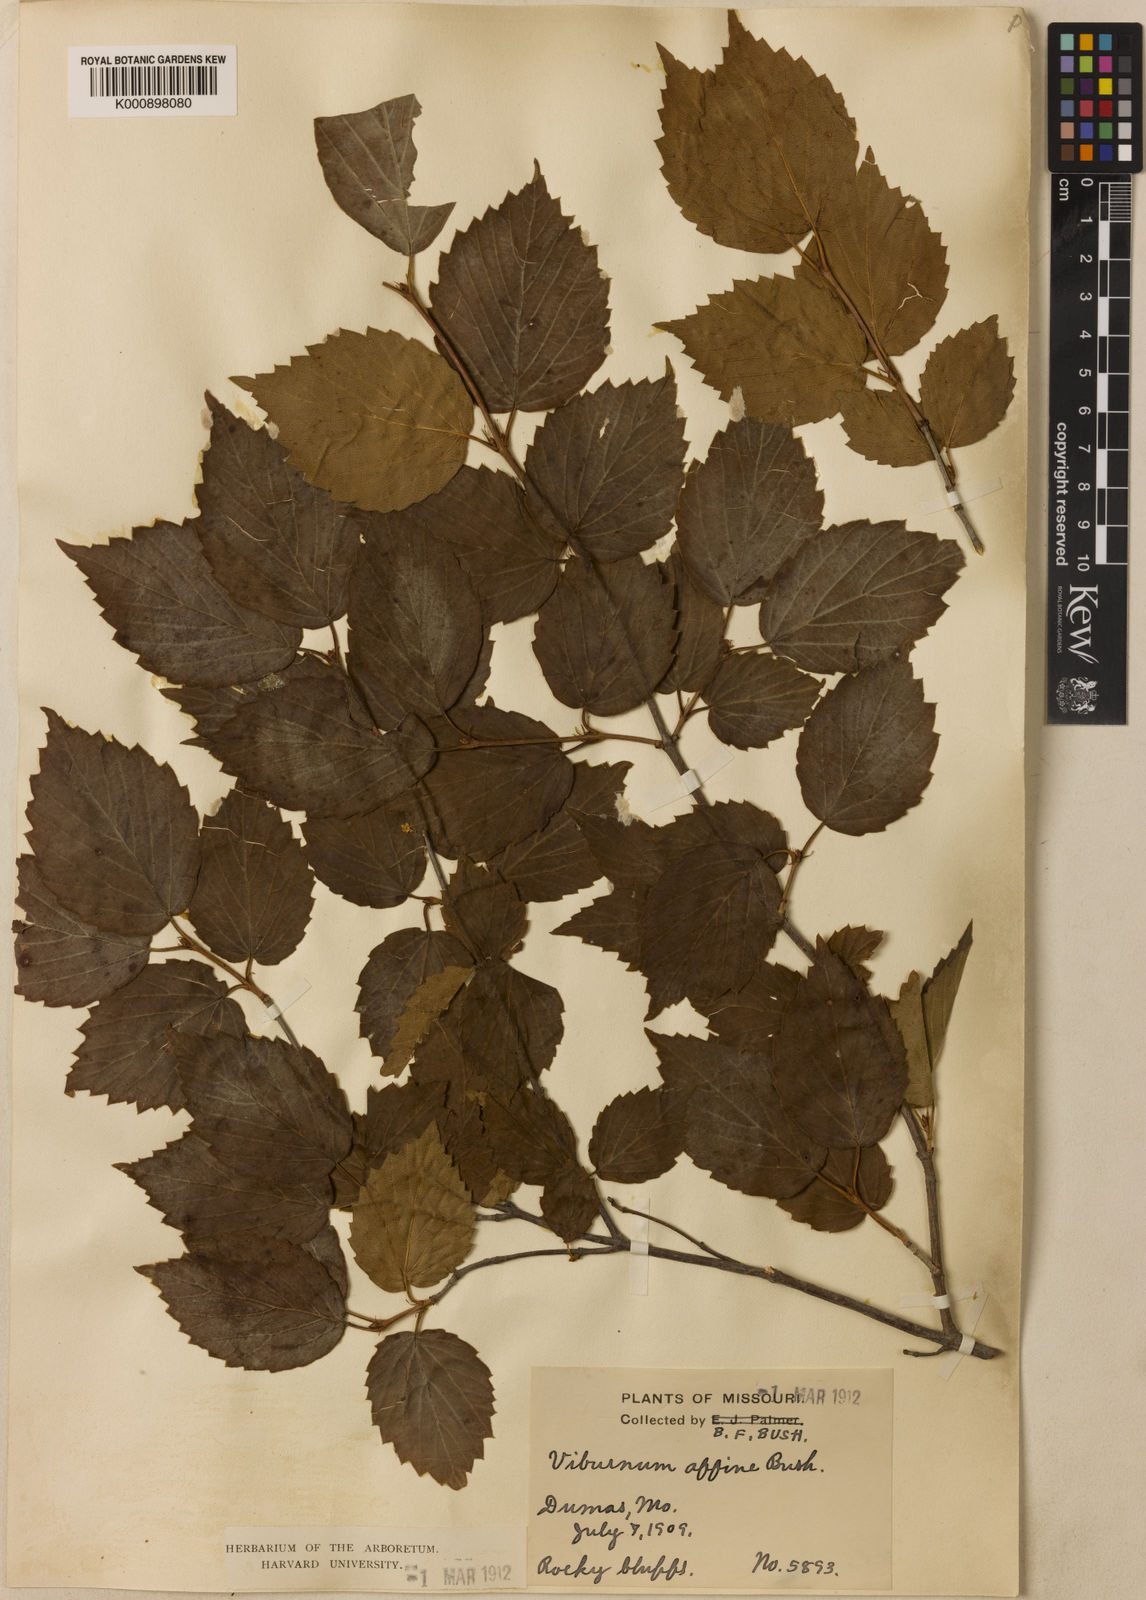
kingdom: Plantae
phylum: Tracheophyta
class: Magnoliopsida
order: Dipsacales
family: Viburnaceae
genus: Viburnum
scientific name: Viburnum
